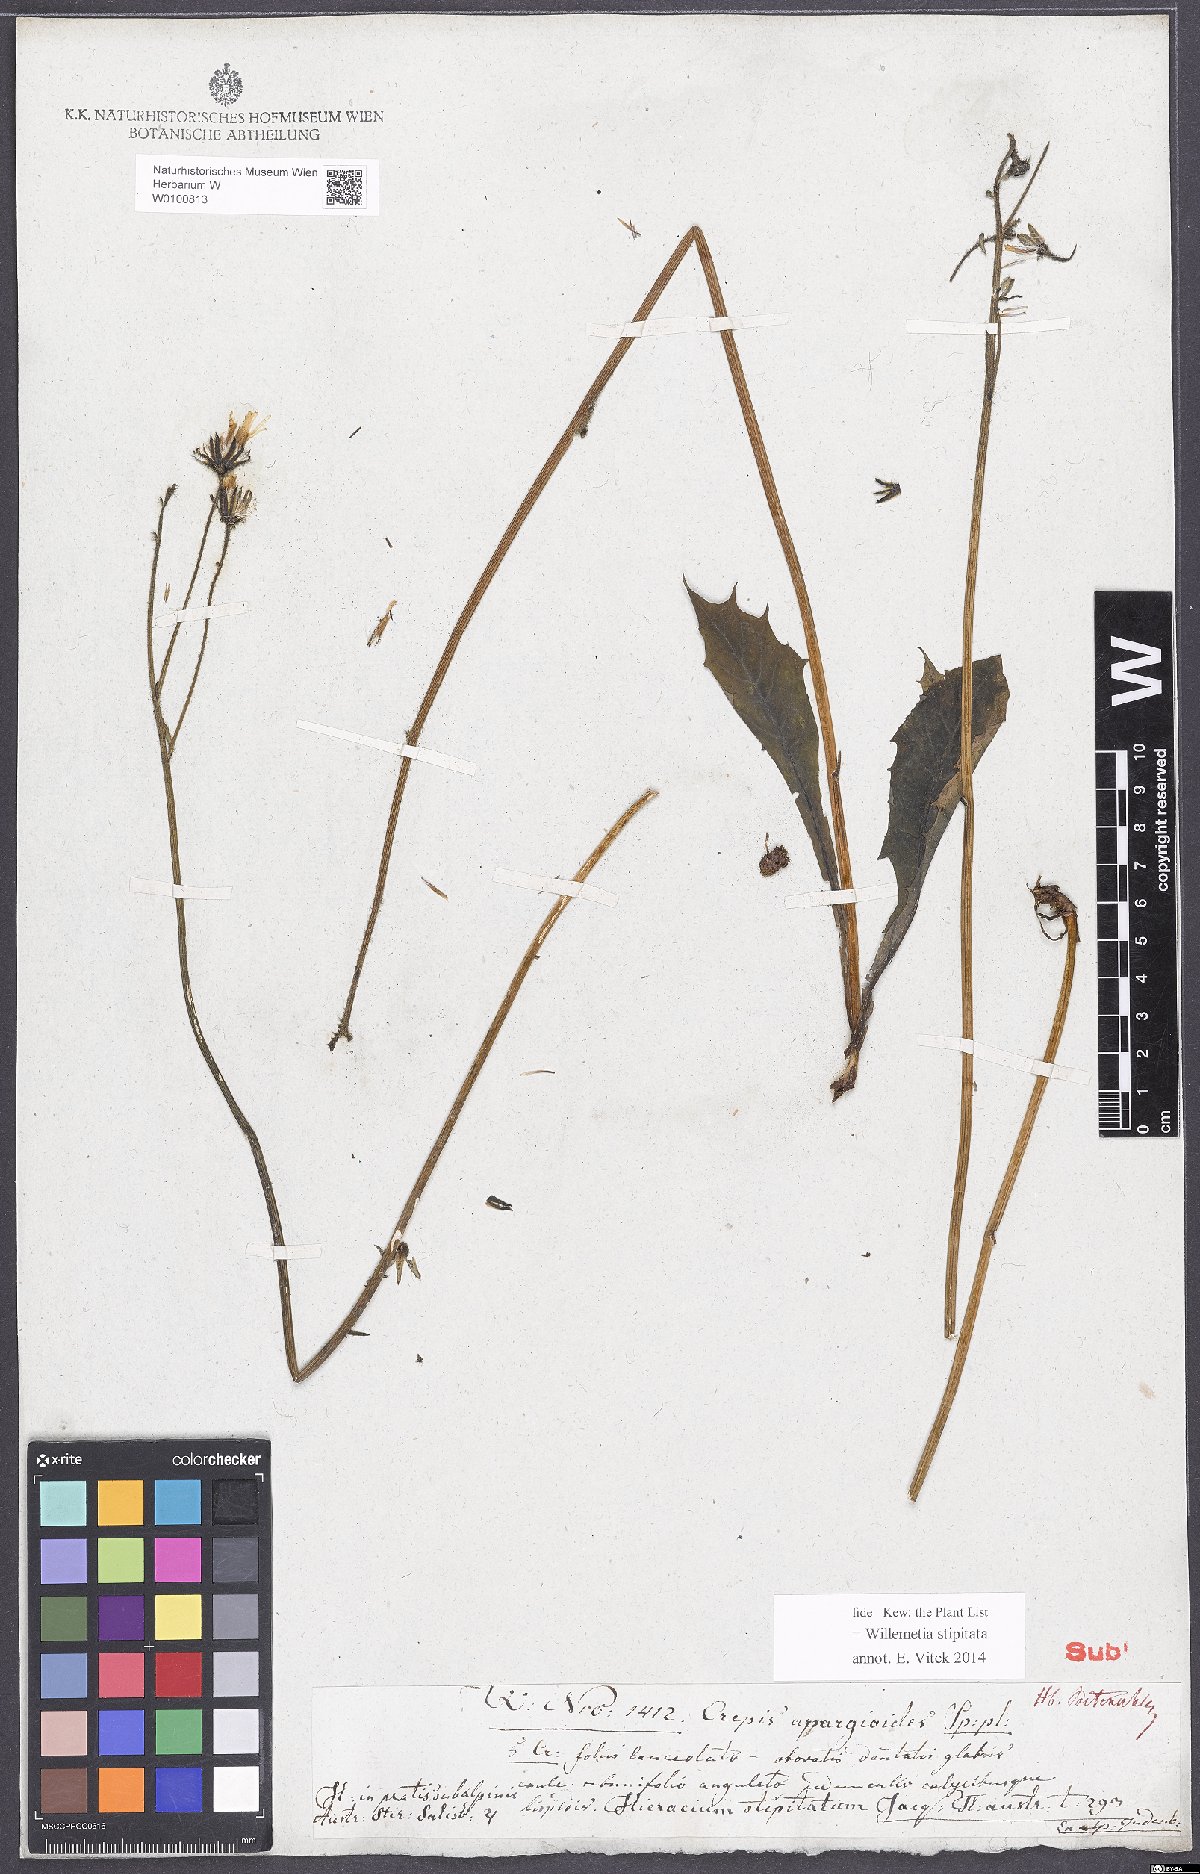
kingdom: Plantae
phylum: Tracheophyta
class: Magnoliopsida
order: Asterales
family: Asteraceae
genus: Willemetia
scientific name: Willemetia stipitata
